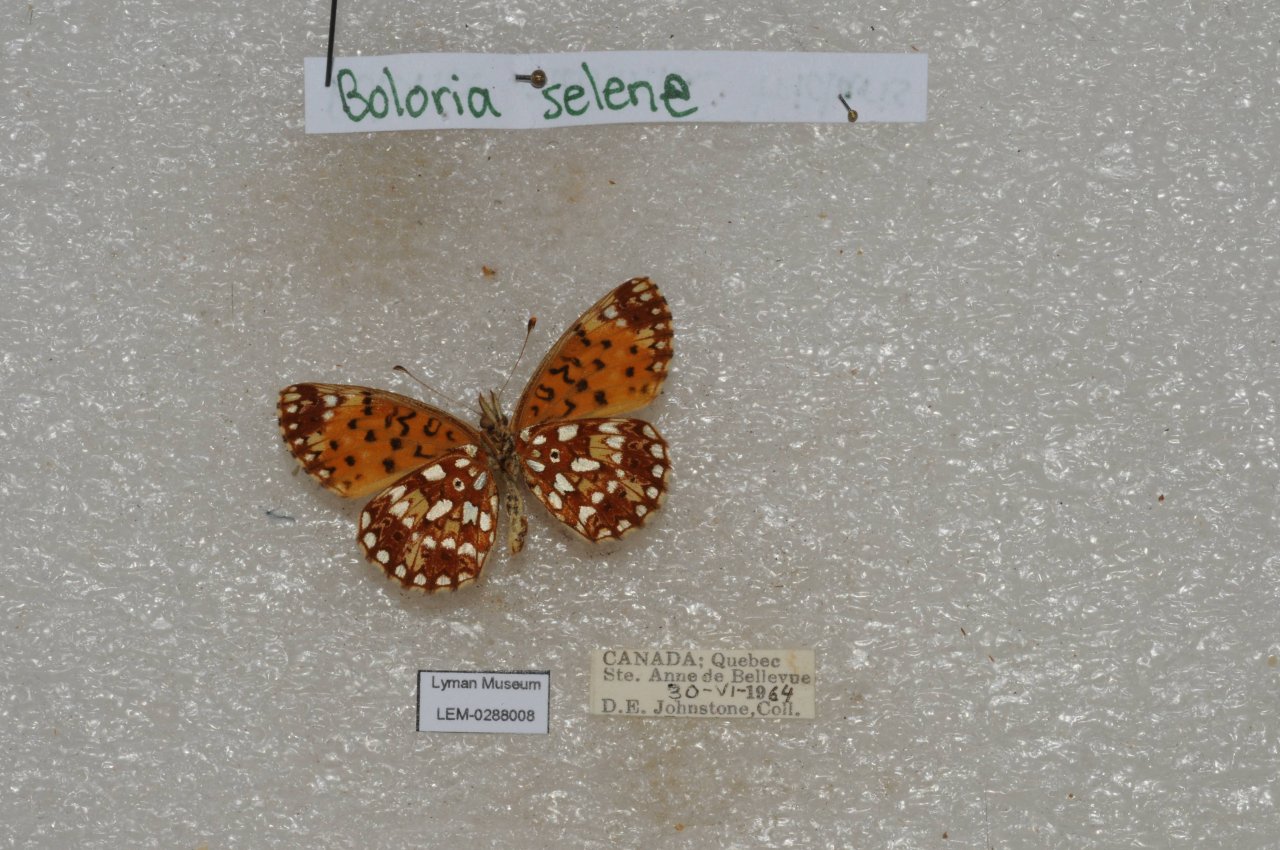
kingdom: Animalia
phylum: Arthropoda
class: Insecta
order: Lepidoptera
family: Nymphalidae
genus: Boloria
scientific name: Boloria selene
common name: Silver-bordered Fritillary
